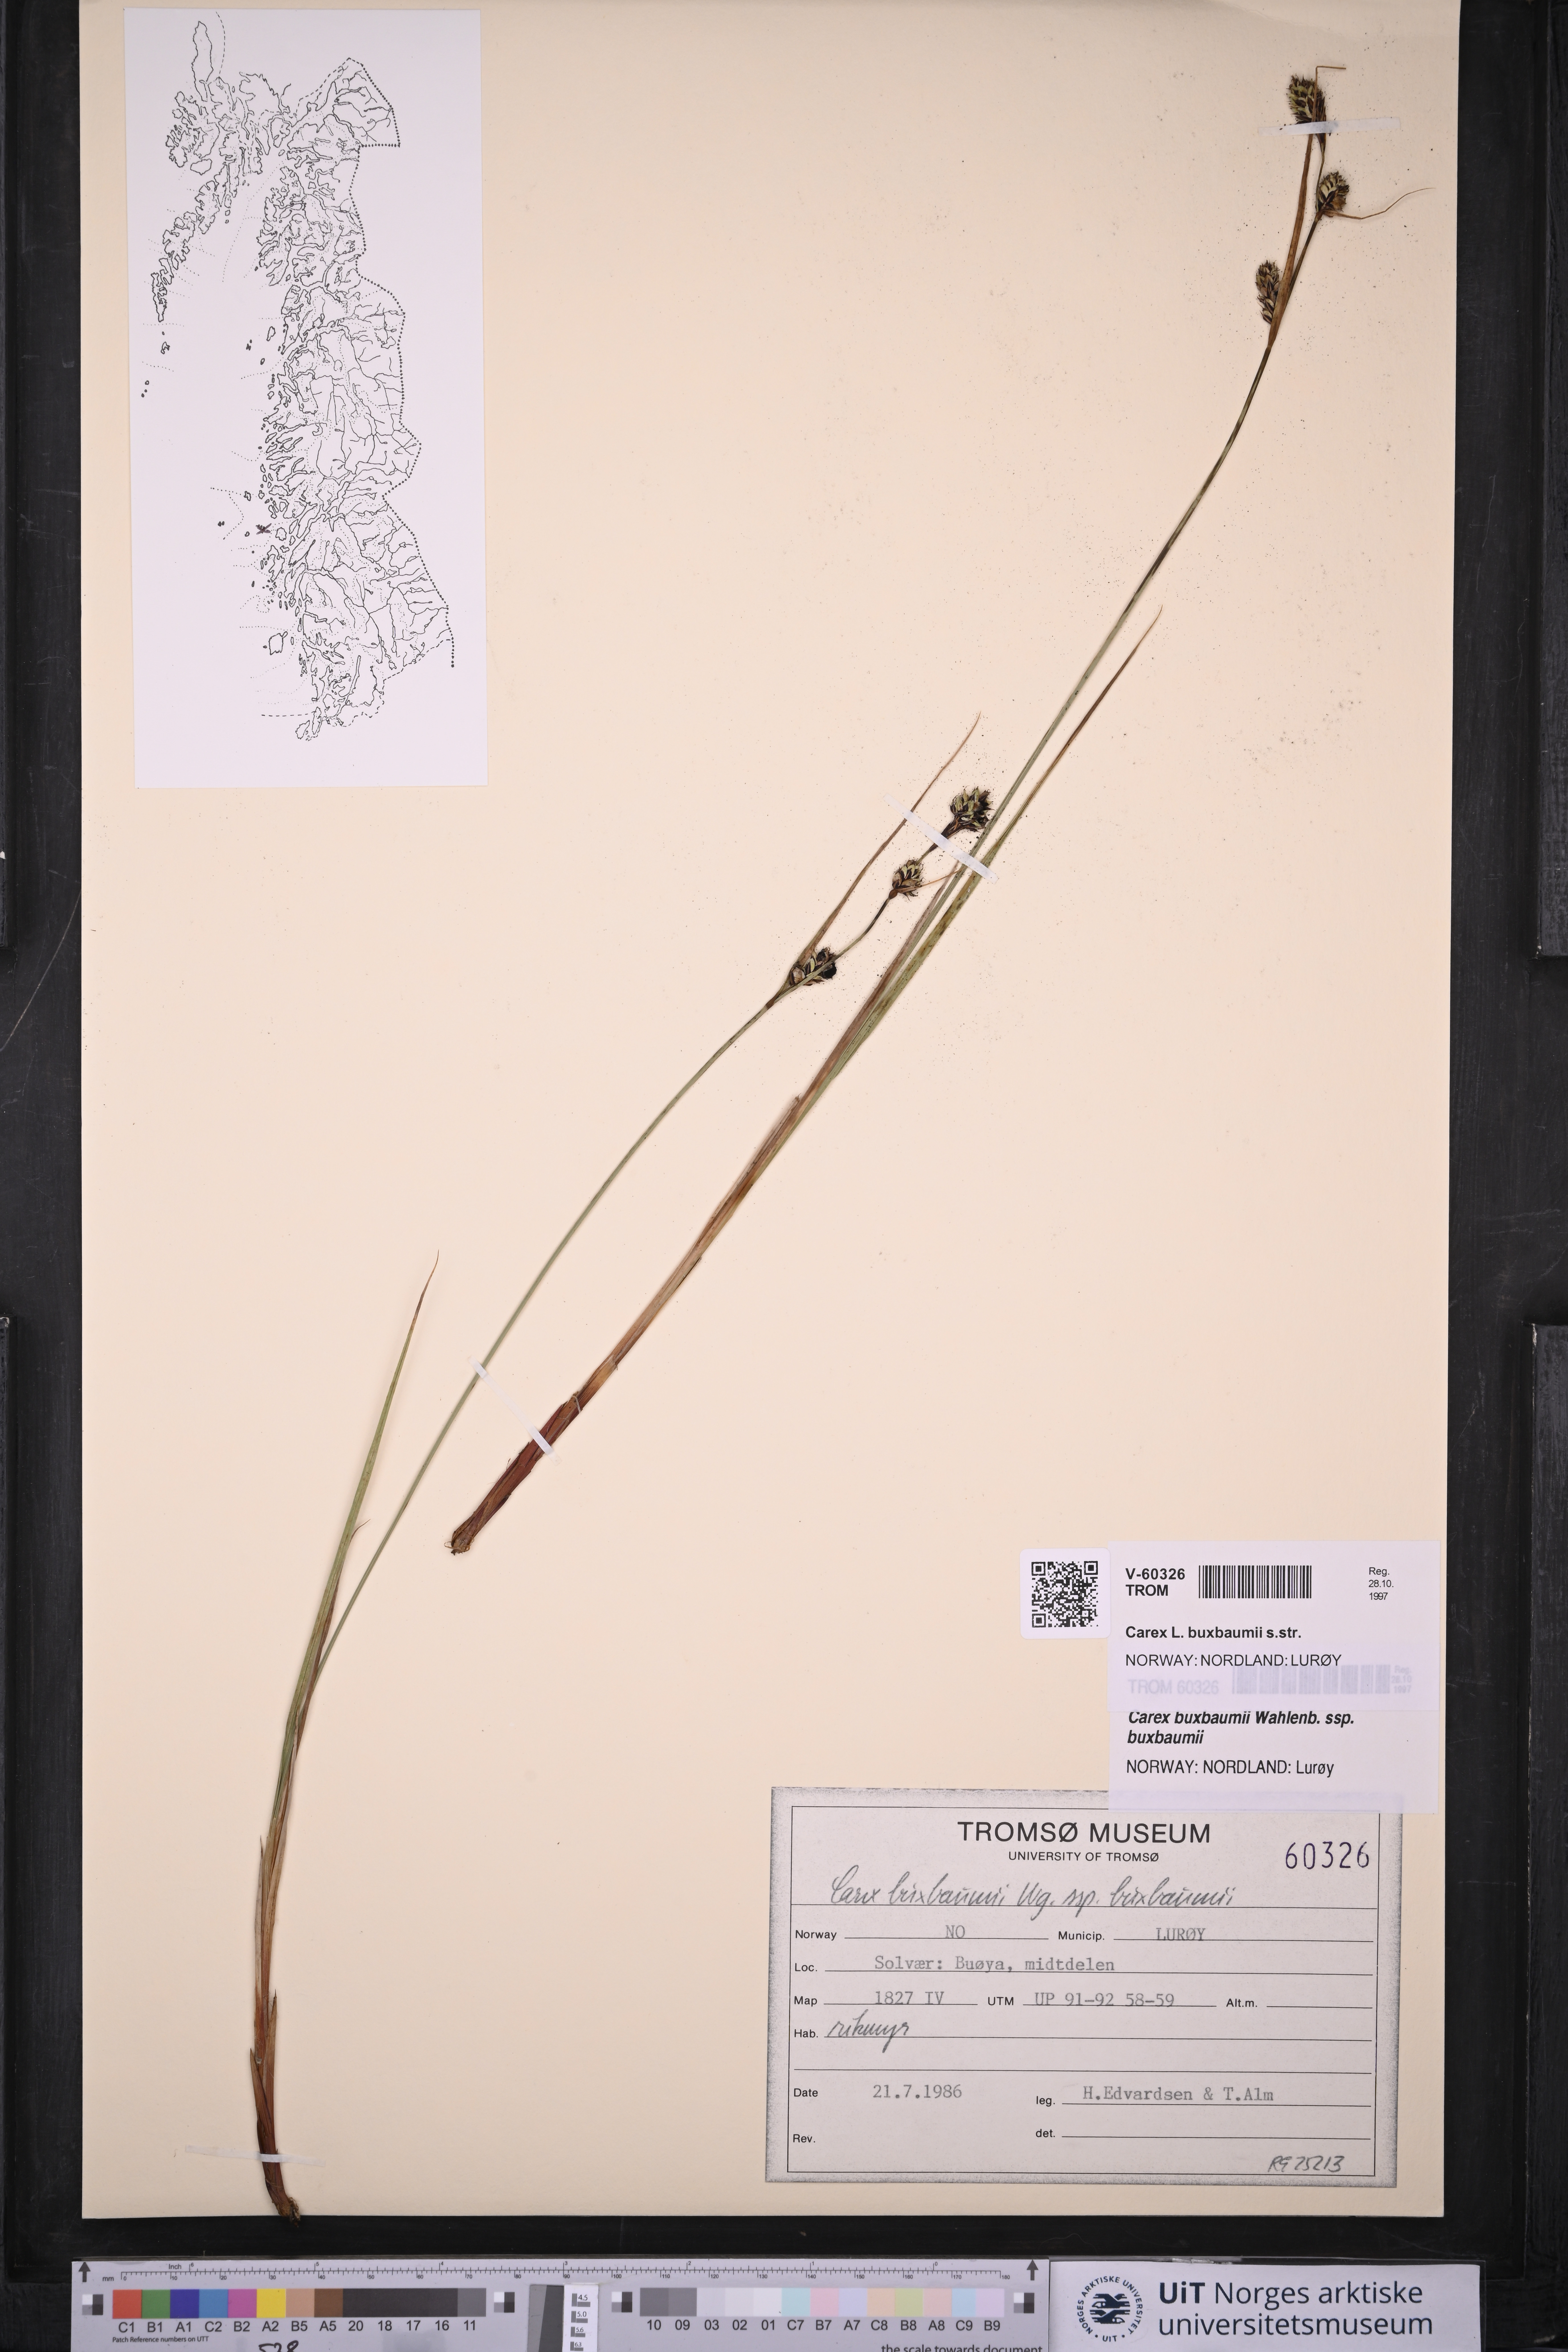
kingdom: Plantae
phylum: Tracheophyta
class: Liliopsida
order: Poales
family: Cyperaceae
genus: Carex
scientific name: Carex buxbaumii
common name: Club sedge
